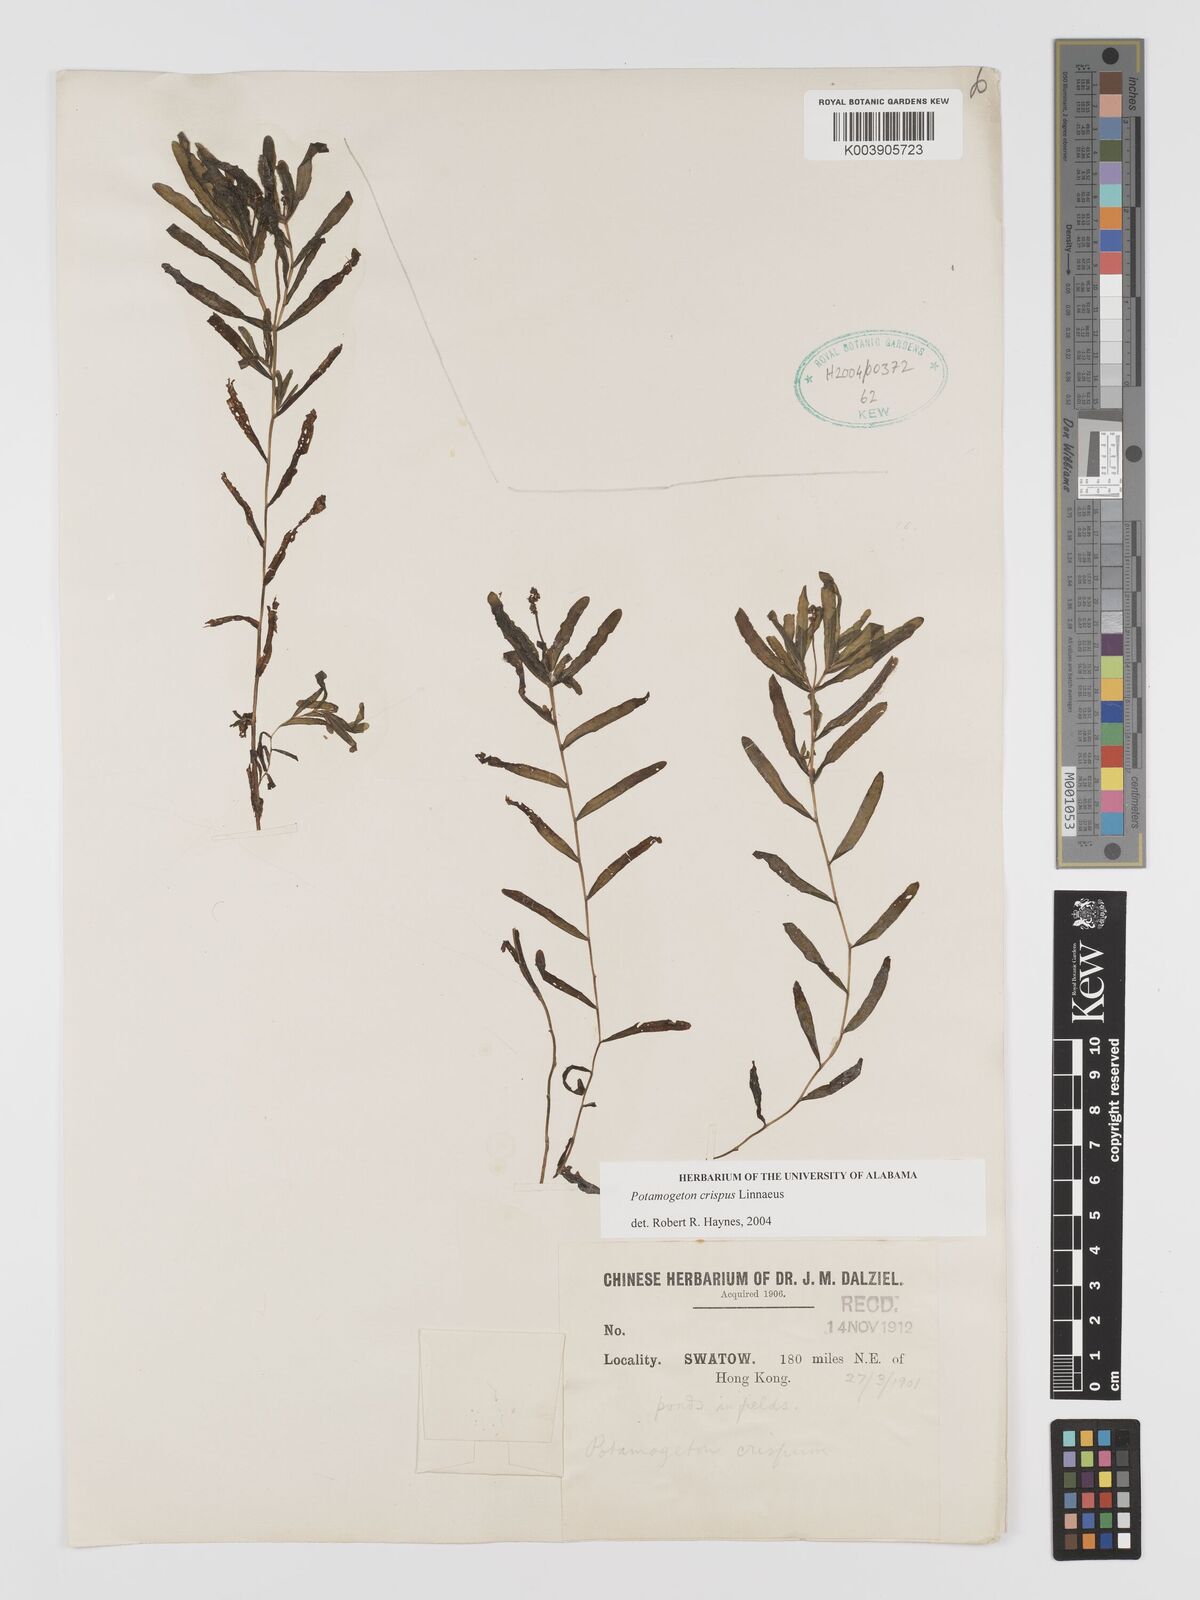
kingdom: Plantae
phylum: Tracheophyta
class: Liliopsida
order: Alismatales
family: Potamogetonaceae
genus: Potamogeton
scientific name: Potamogeton crispus
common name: Curled pondweed
